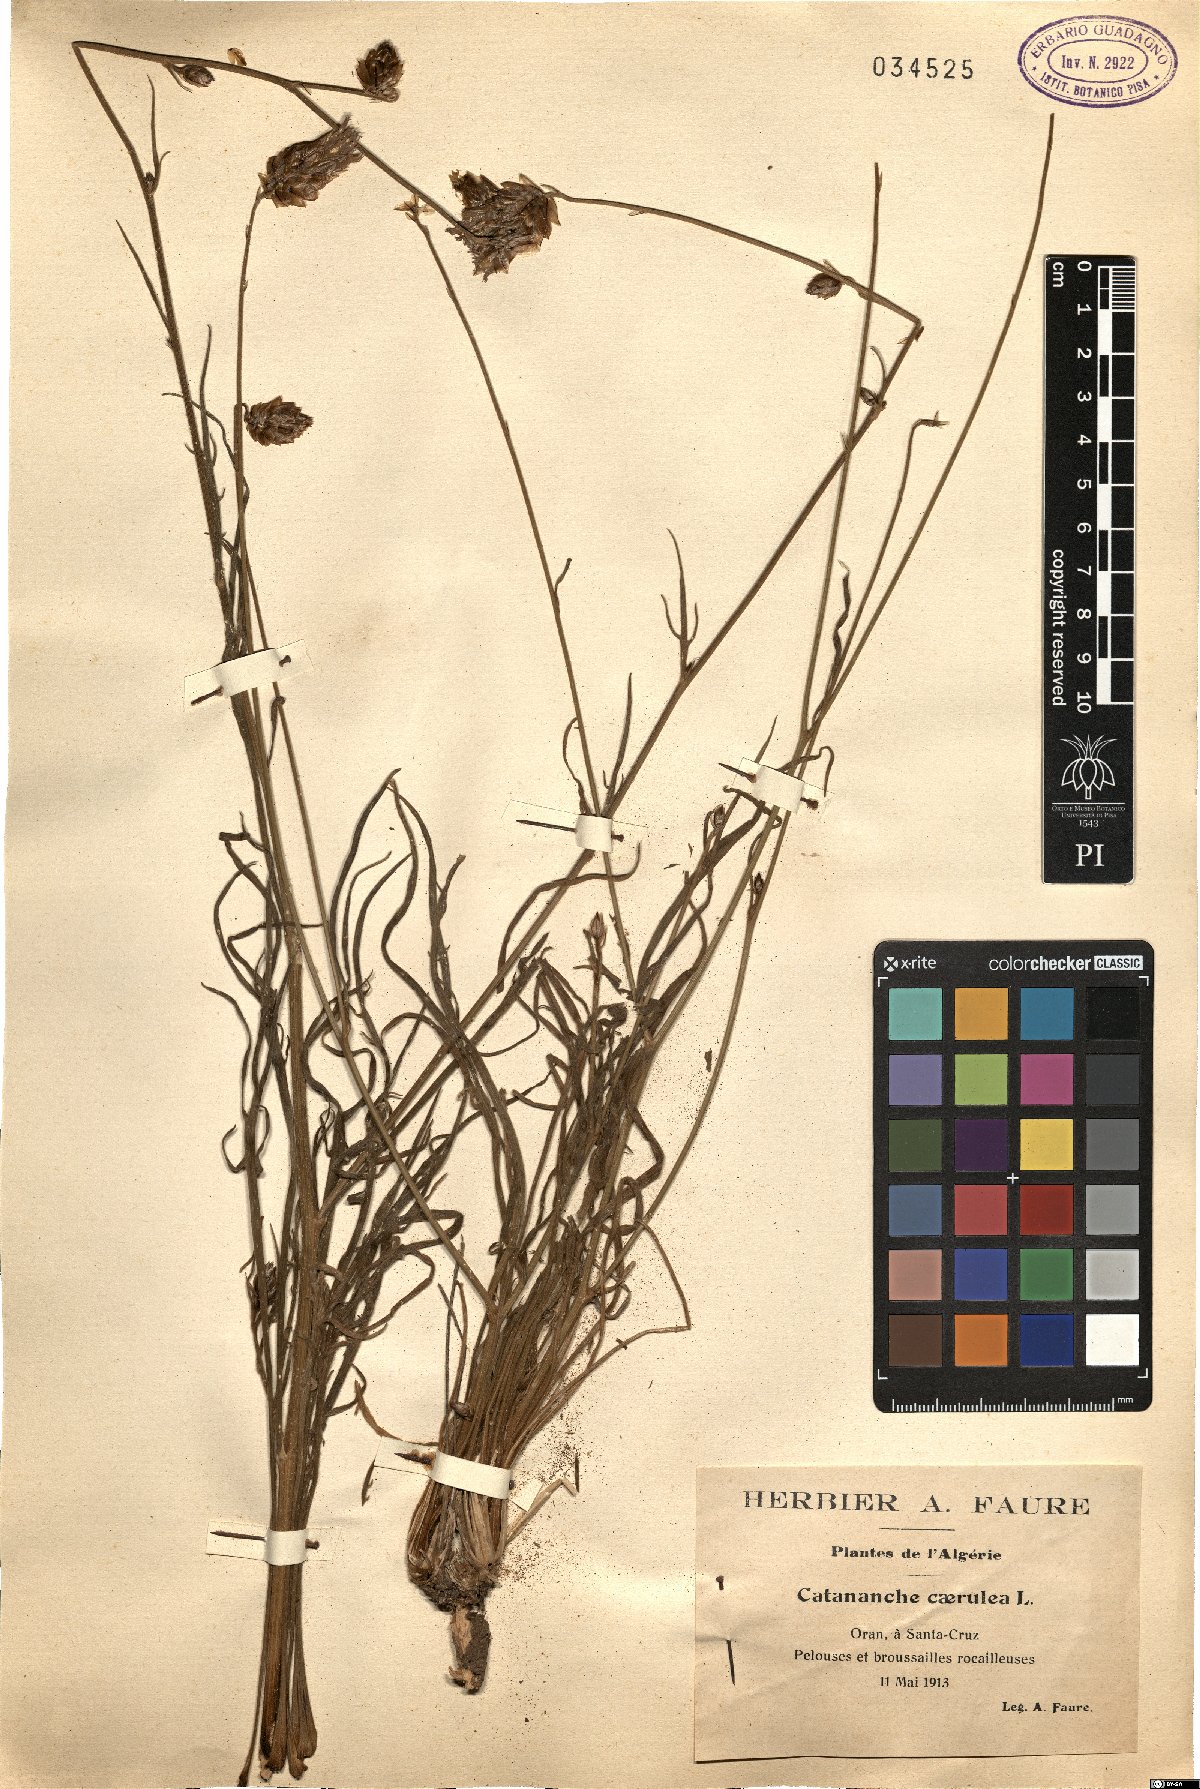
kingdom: Plantae
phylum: Tracheophyta
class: Magnoliopsida
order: Asterales
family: Asteraceae
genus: Catananche
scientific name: Catananche caerulea
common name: Blue cupidone
